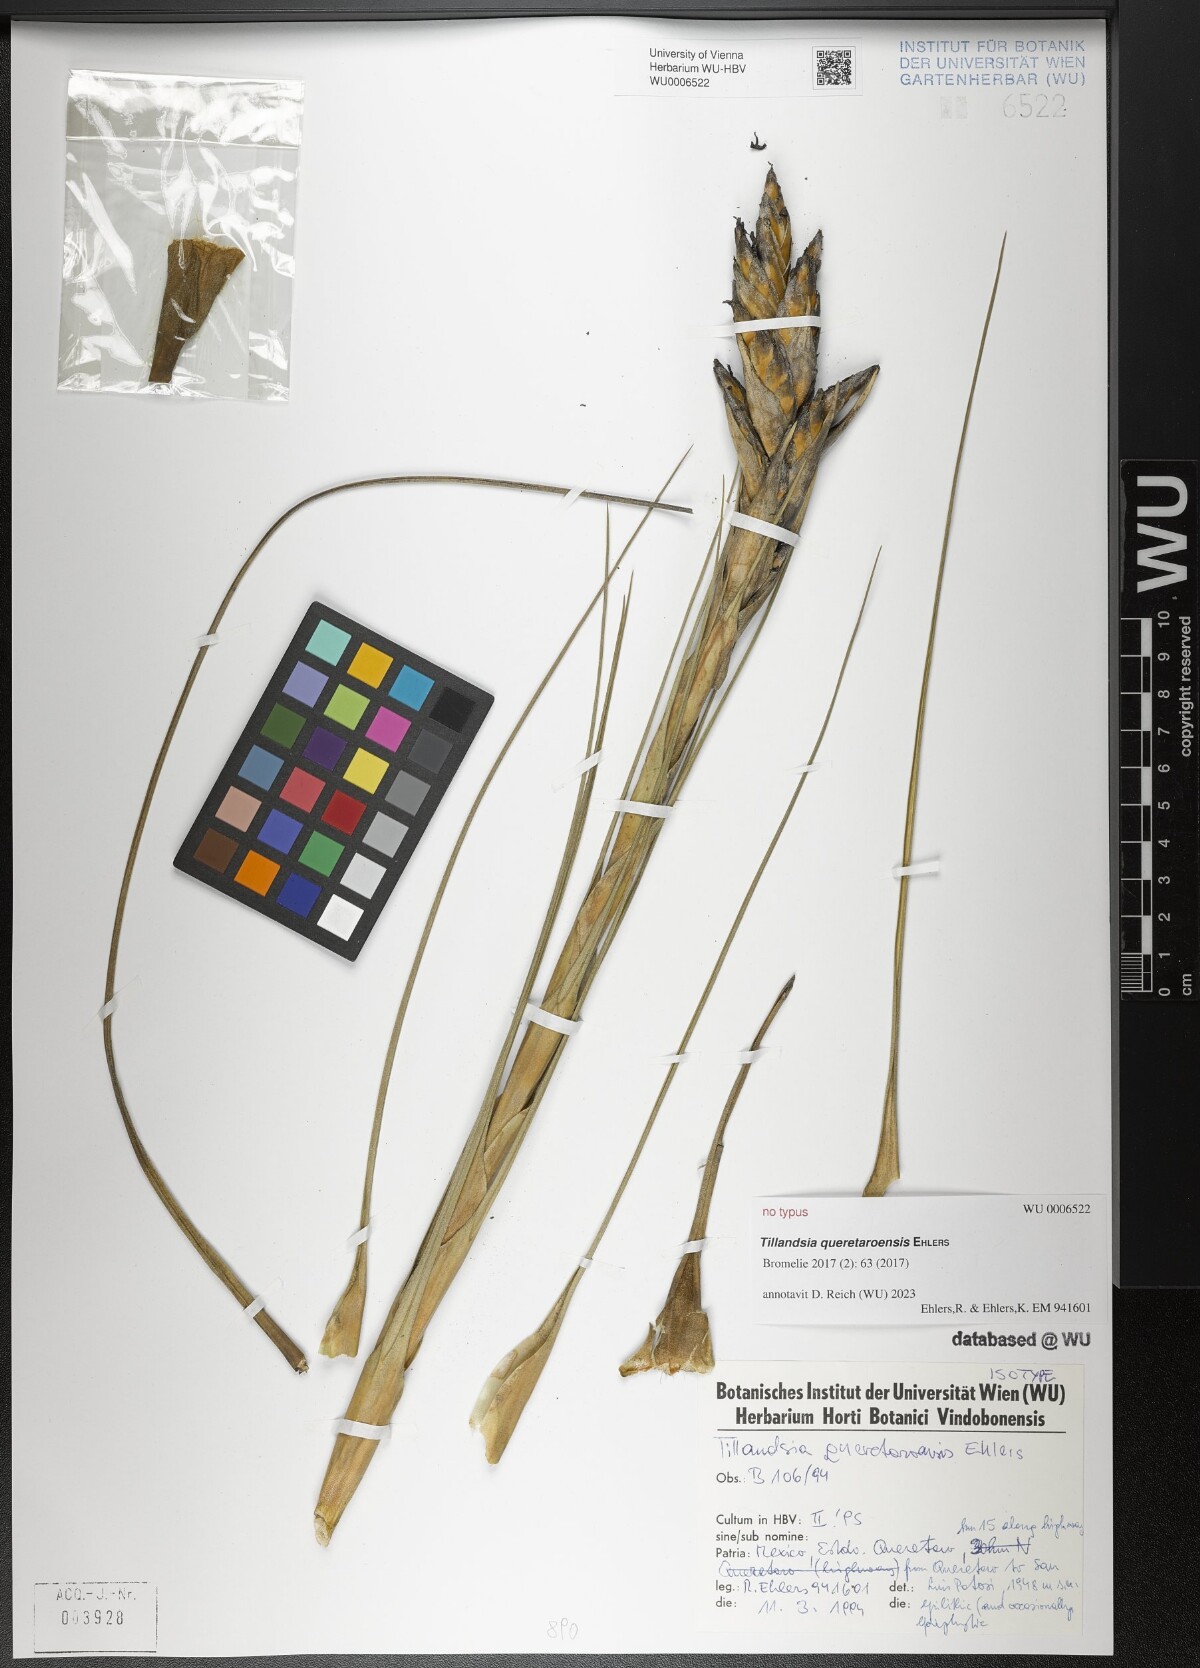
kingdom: Plantae
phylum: Tracheophyta
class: Liliopsida
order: Poales
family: Bromeliaceae
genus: Tillandsia
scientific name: Tillandsia queretaroensis
